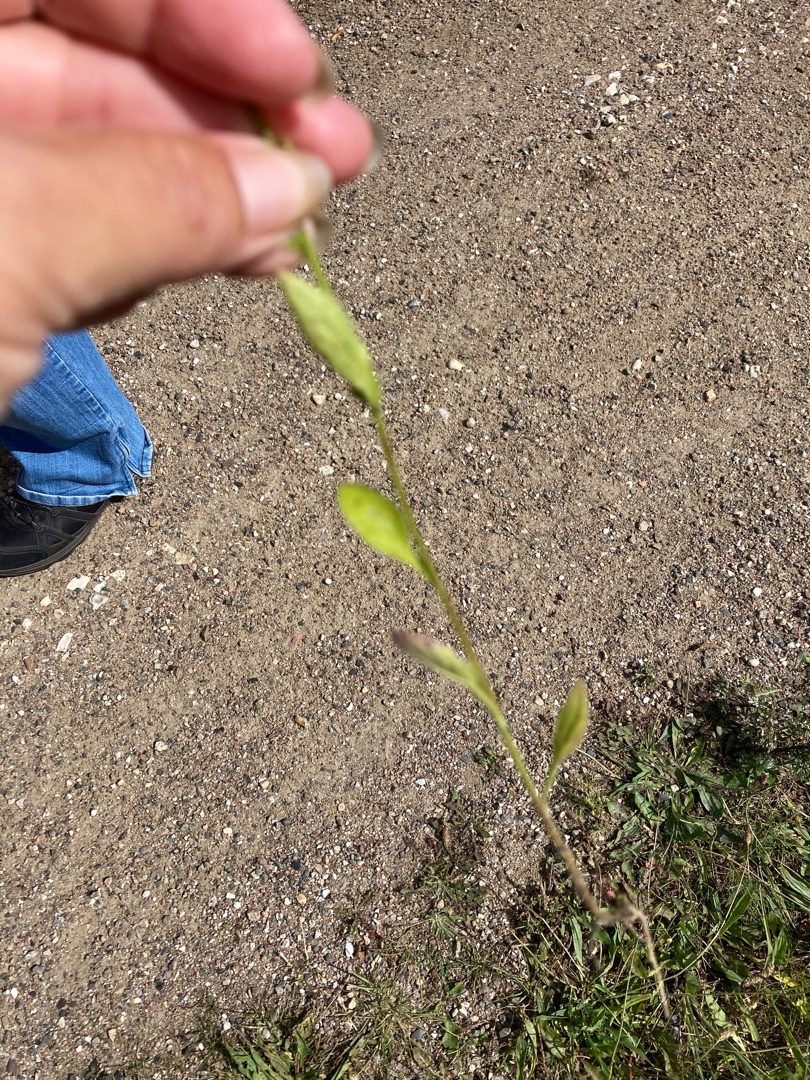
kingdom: Plantae
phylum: Tracheophyta
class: Magnoliopsida
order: Asterales
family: Asteraceae
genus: Erigeron
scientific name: Erigeron annuus
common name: Smalstråle
